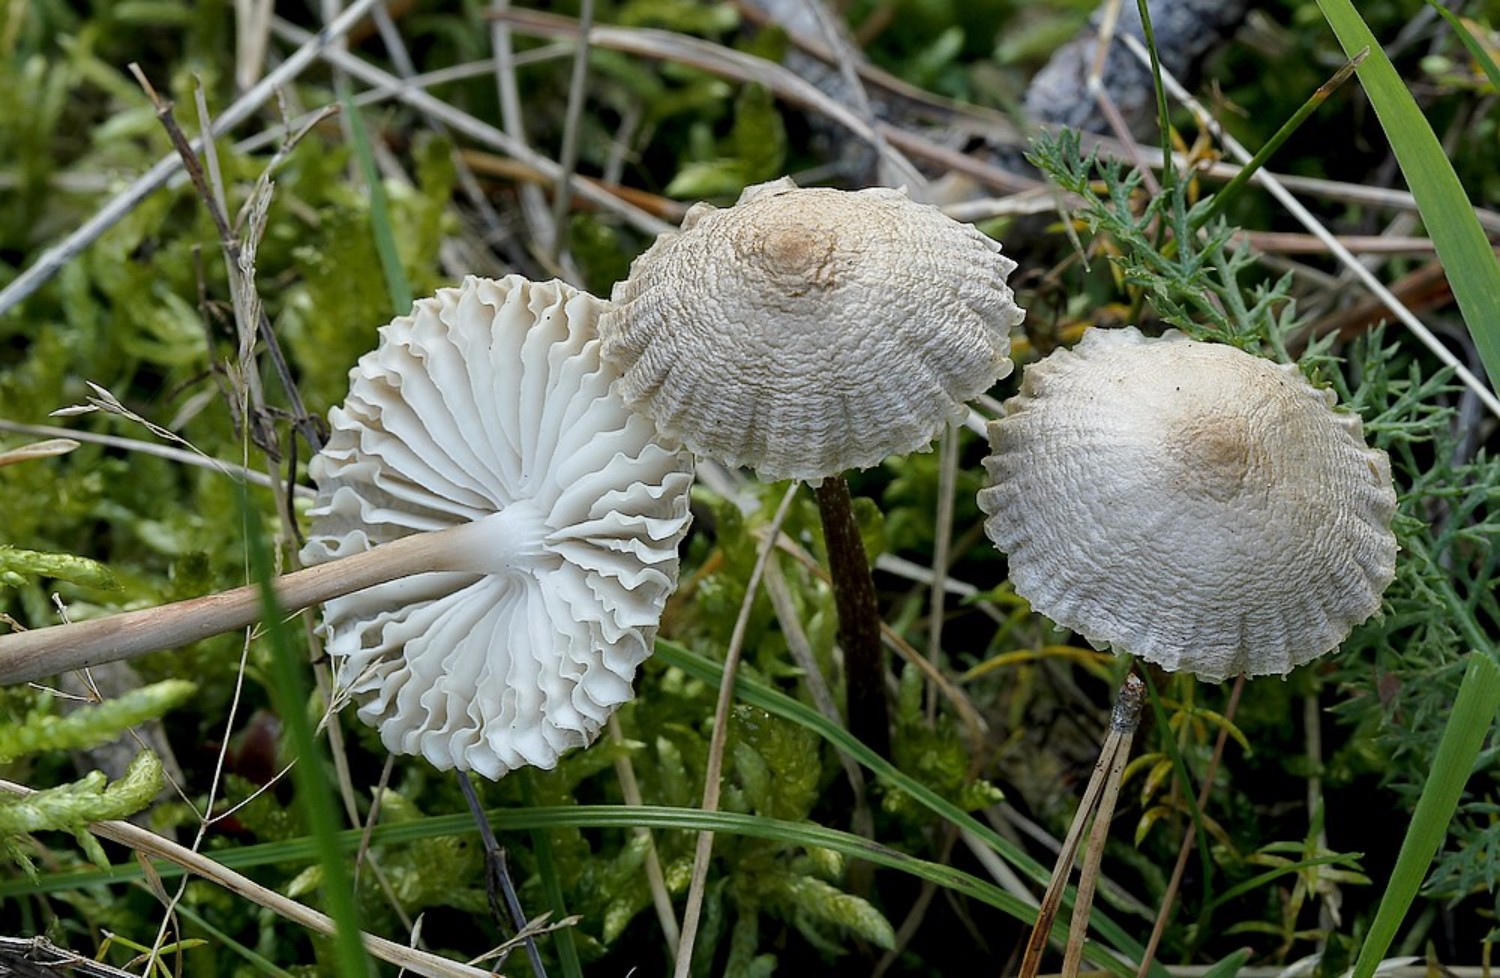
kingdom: Fungi
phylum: Basidiomycota
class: Agaricomycetes
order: Agaricales
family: Marasmiaceae
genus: Crinipellis
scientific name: Crinipellis scabella
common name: børstefod
